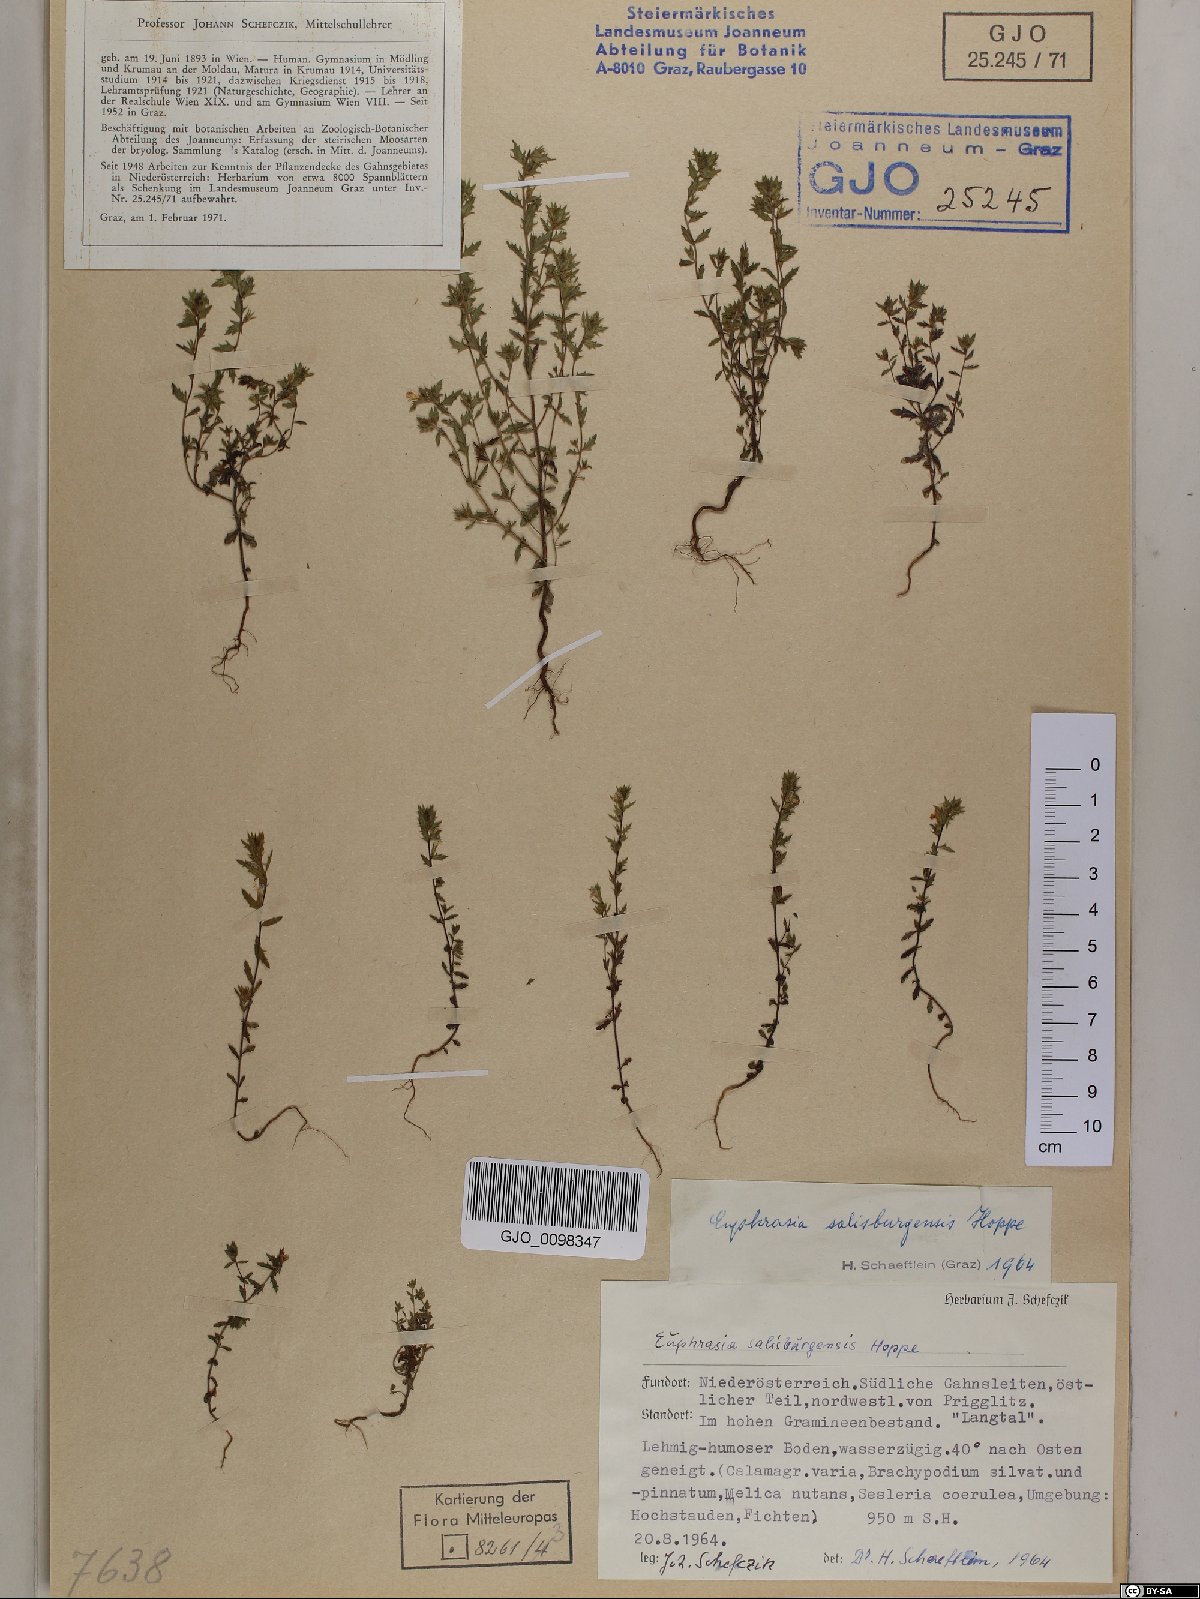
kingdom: Plantae
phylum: Tracheophyta
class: Magnoliopsida
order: Lamiales
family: Orobanchaceae
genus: Euphrasia
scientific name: Euphrasia salisburgensis
